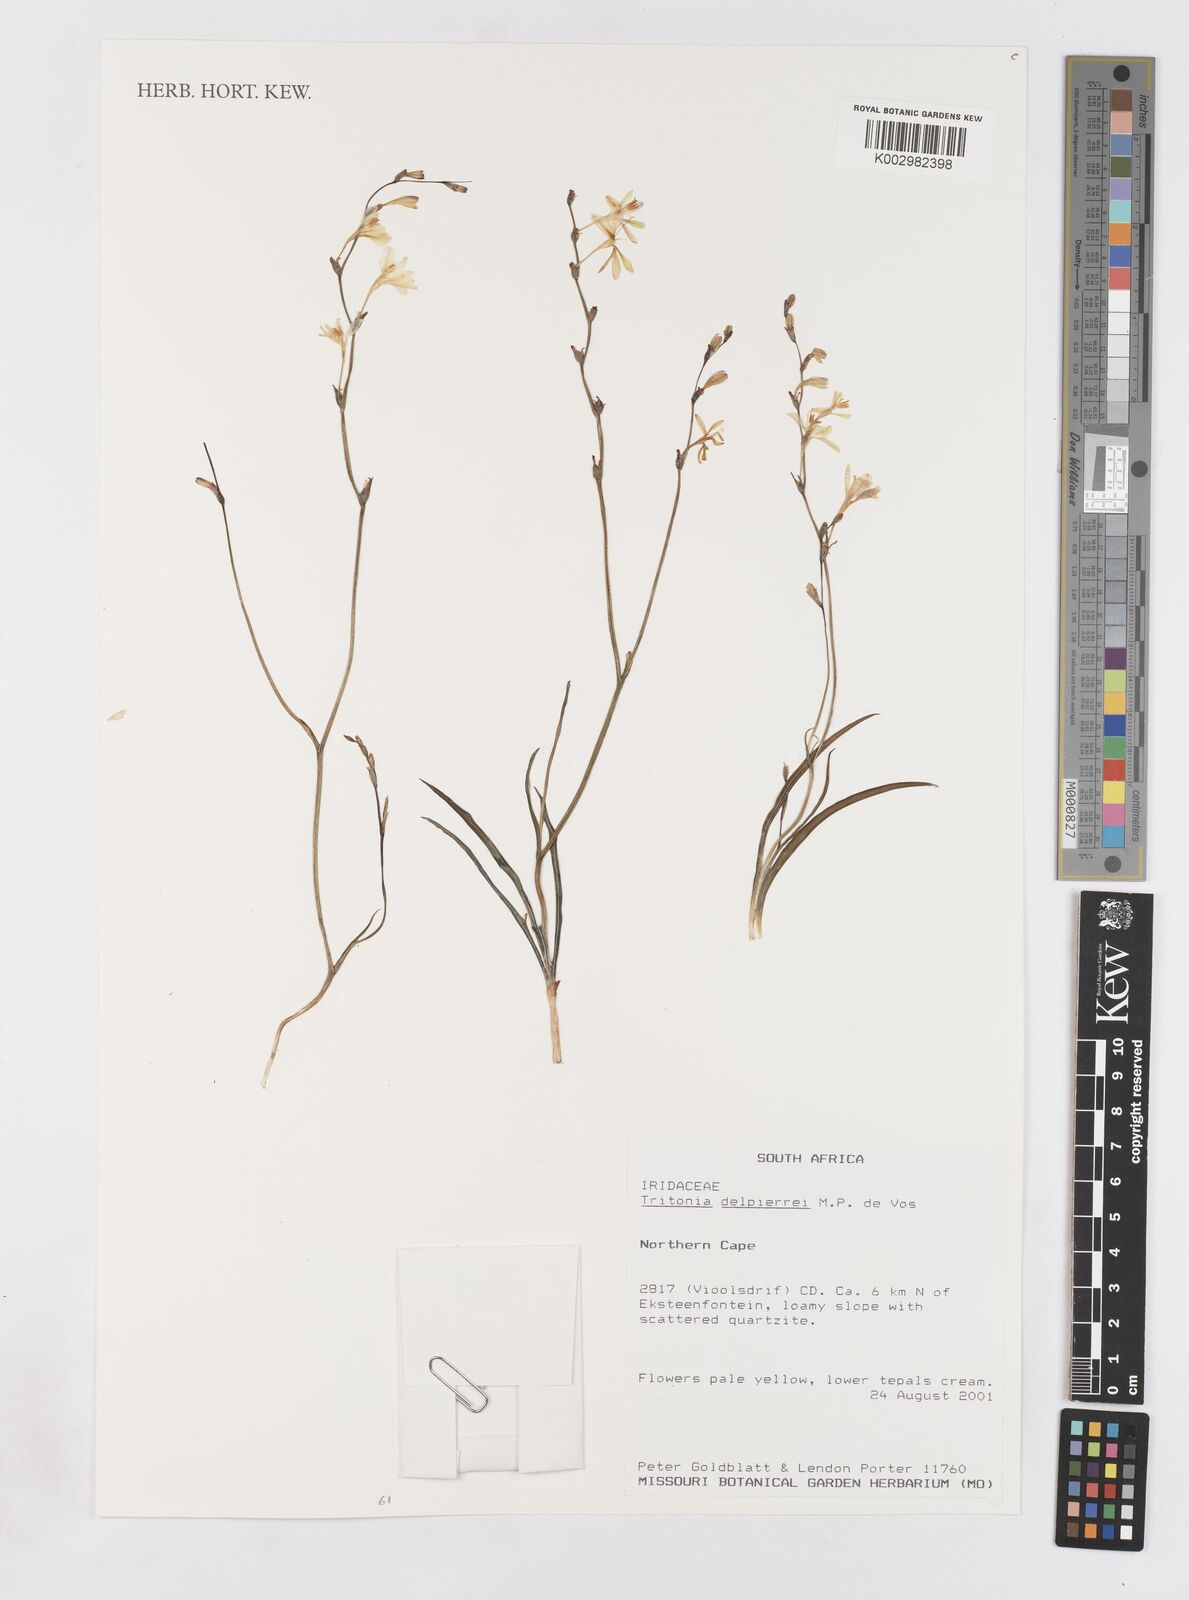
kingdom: Plantae
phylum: Tracheophyta
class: Liliopsida
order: Asparagales
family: Iridaceae
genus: Tritonia
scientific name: Tritonia delpierrei
